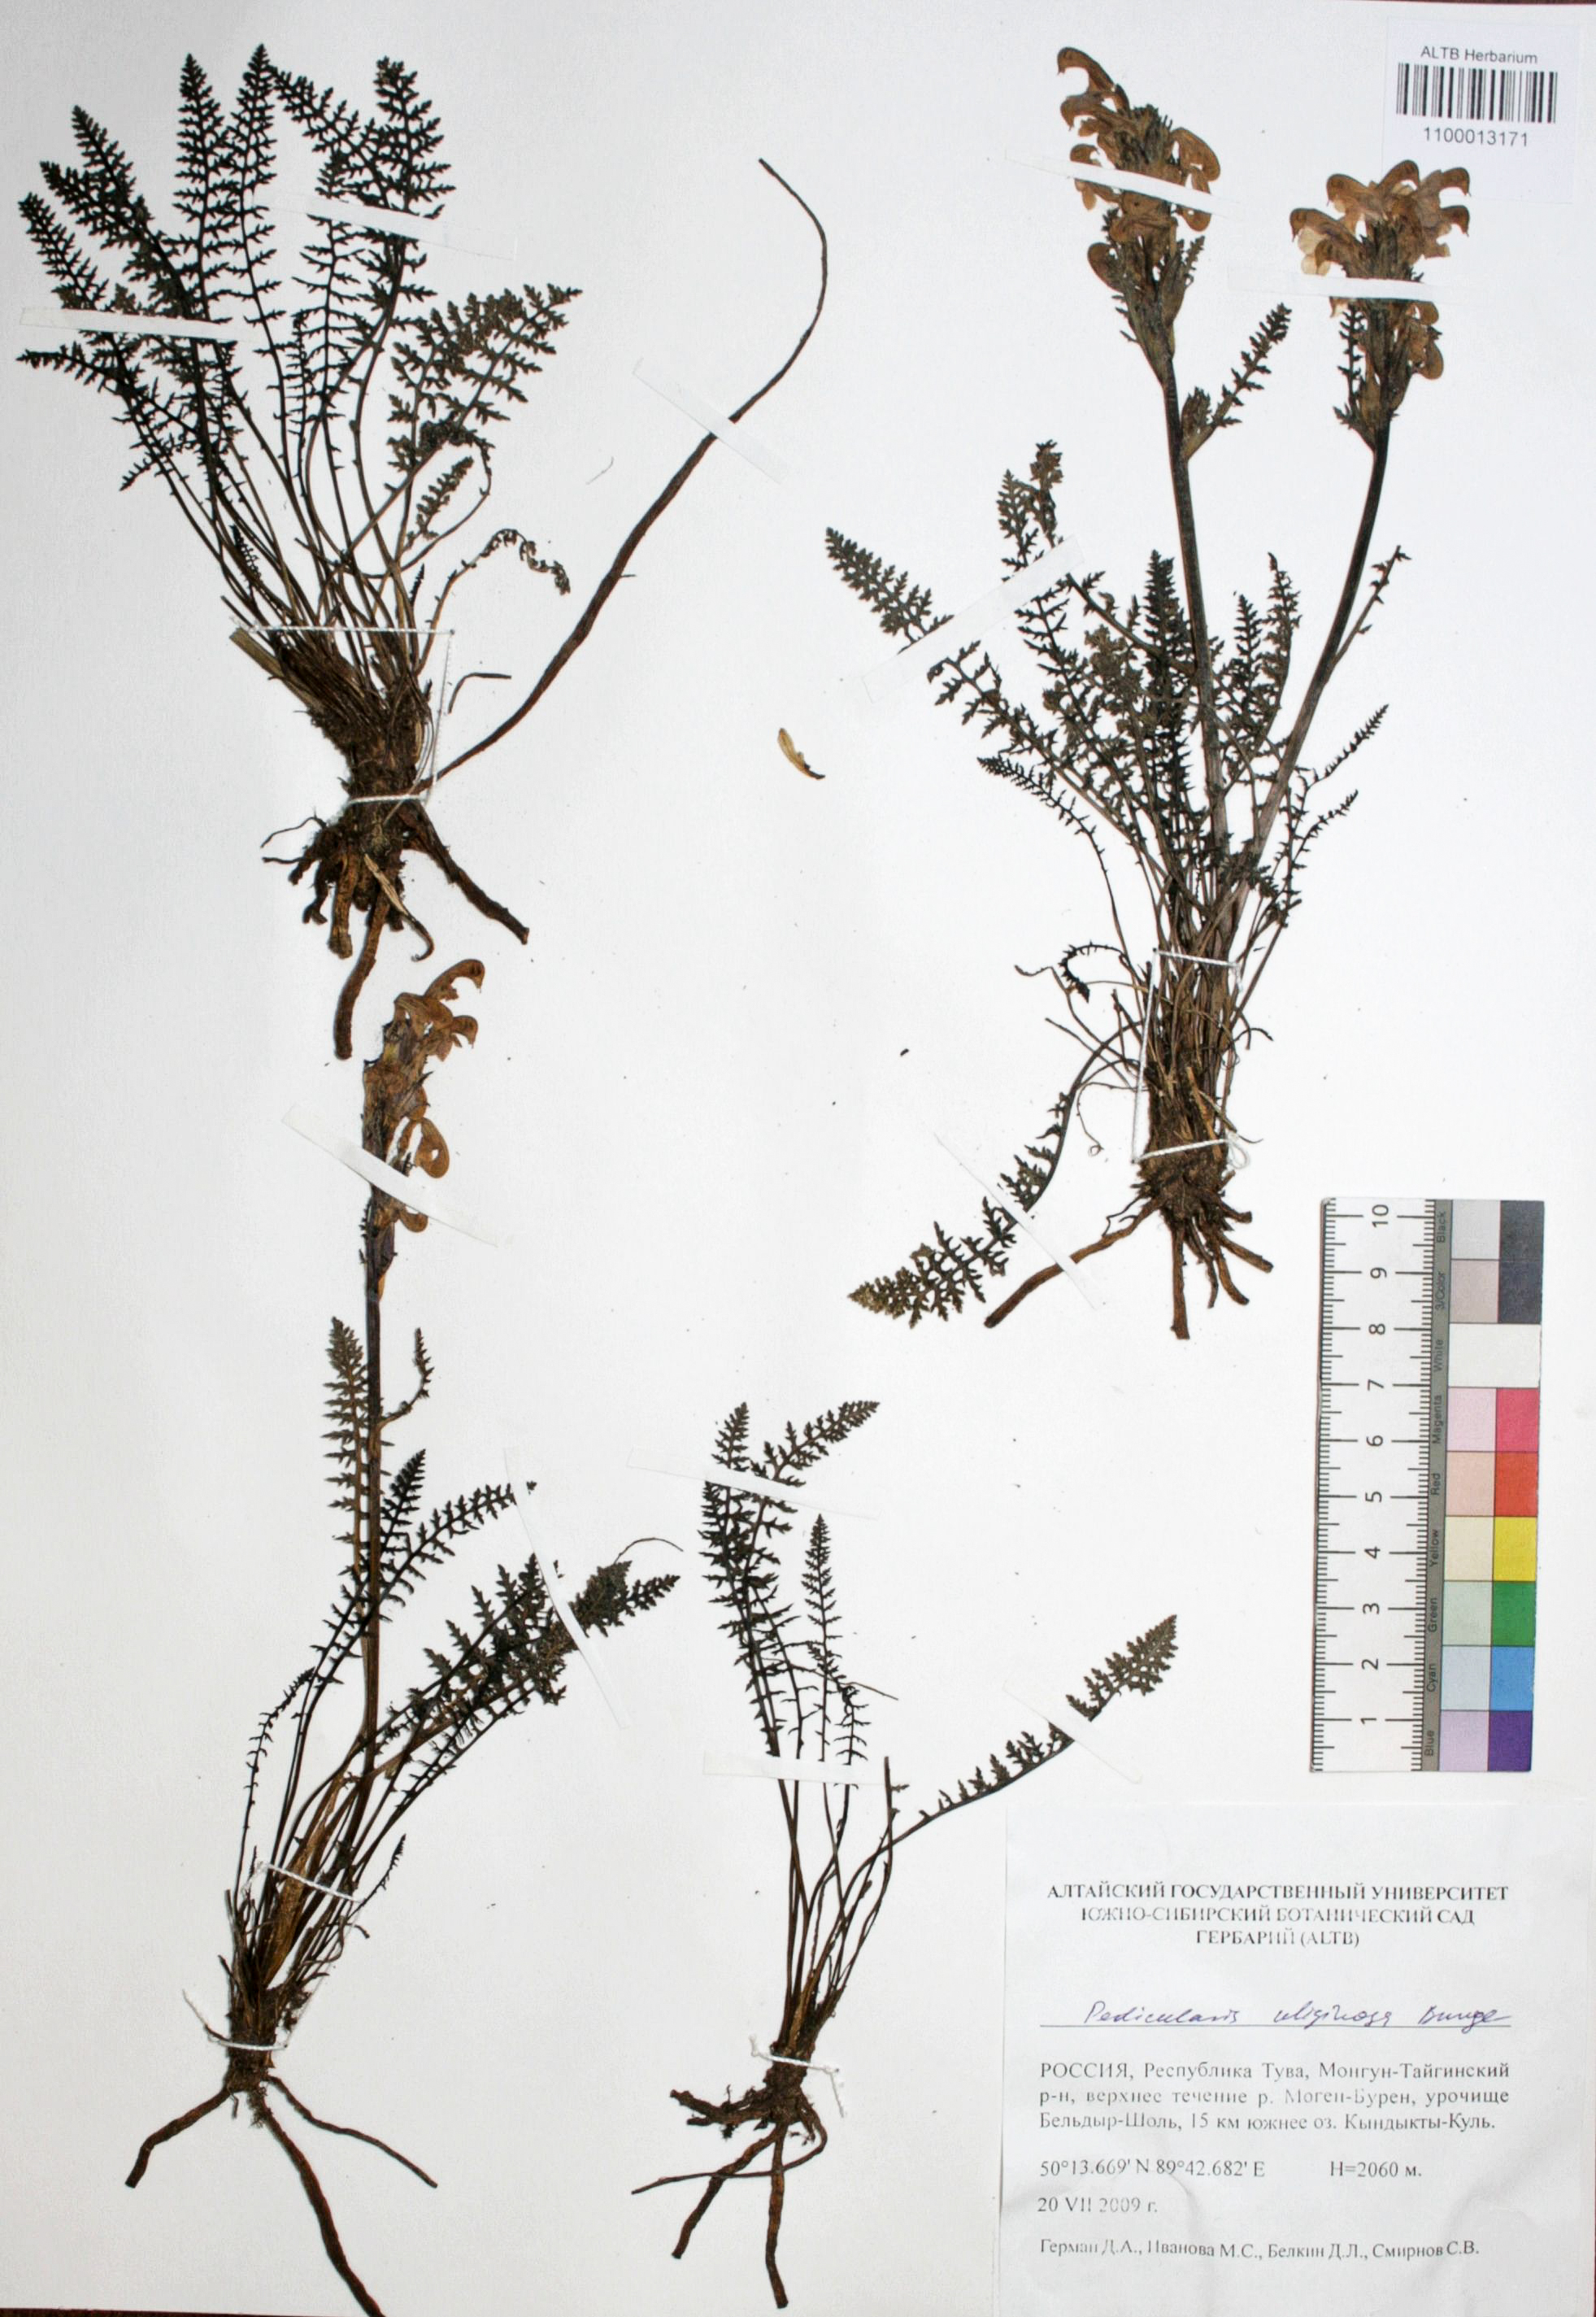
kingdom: Plantae
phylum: Tracheophyta
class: Magnoliopsida
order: Lamiales
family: Orobanchaceae
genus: Pedicularis
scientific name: Pedicularis uliginosa
